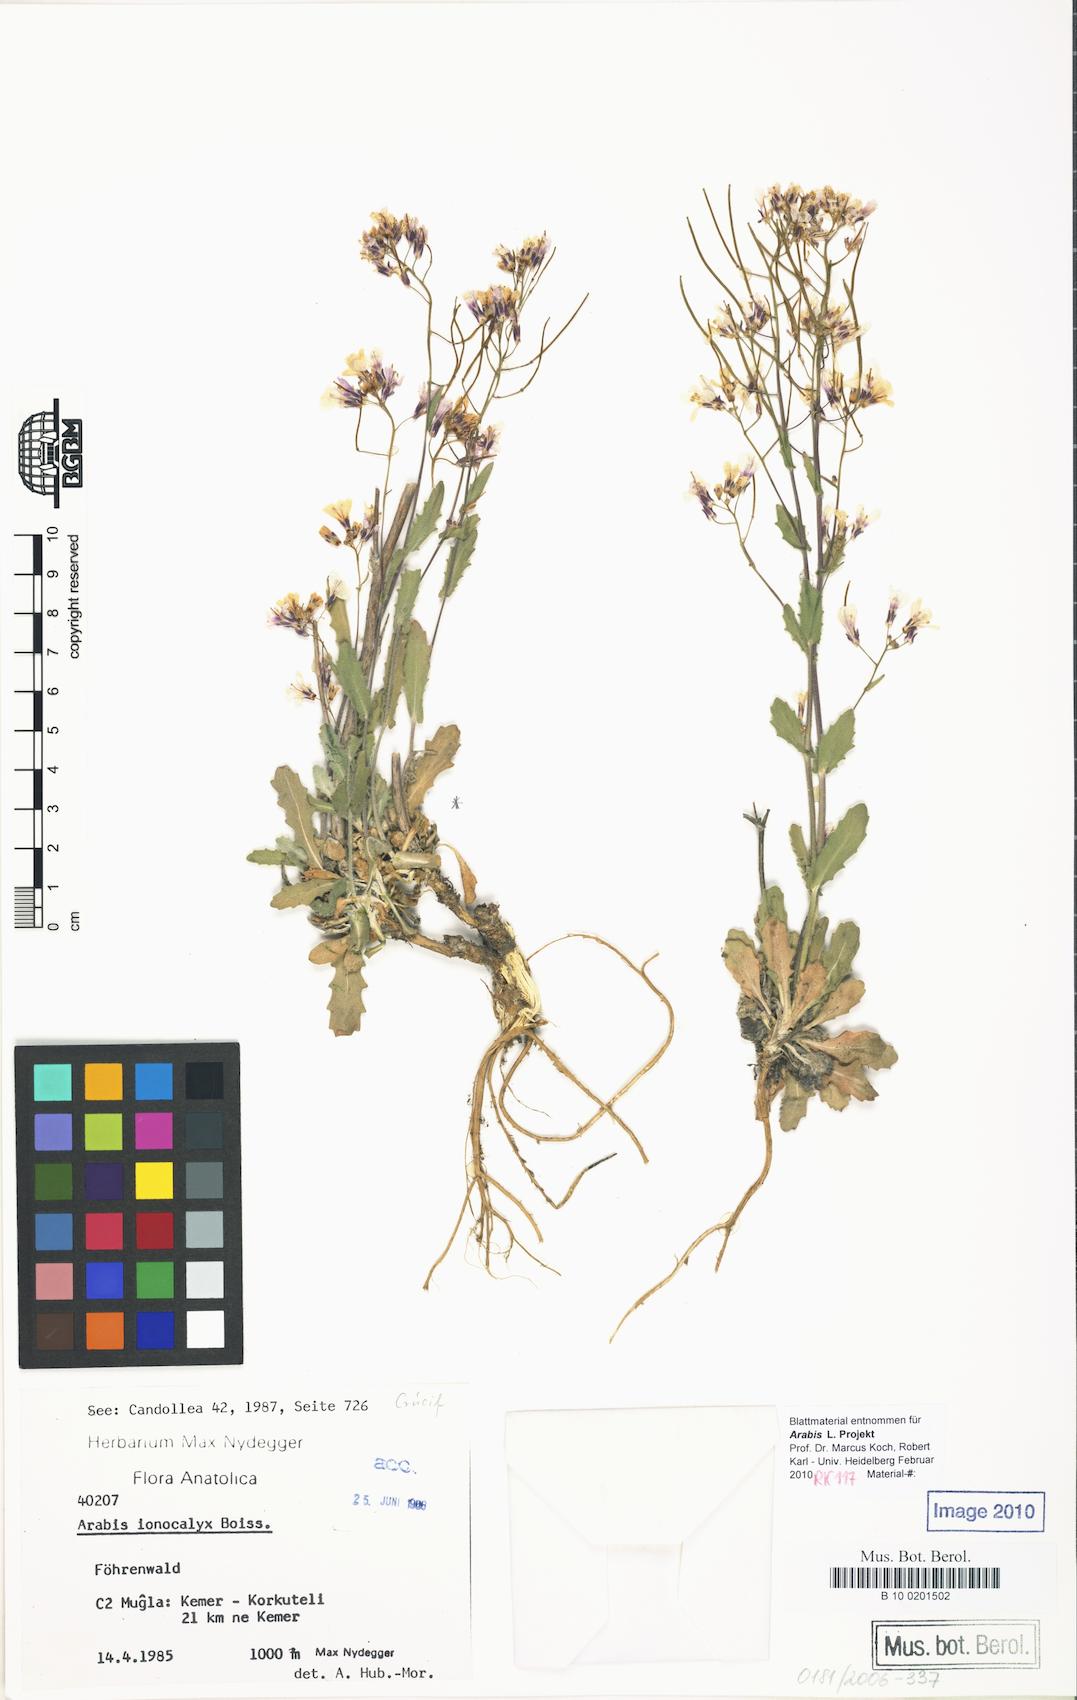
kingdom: Plantae
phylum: Tracheophyta
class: Magnoliopsida
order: Brassicales
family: Brassicaceae
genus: Arabis
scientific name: Arabis ionocalyx
